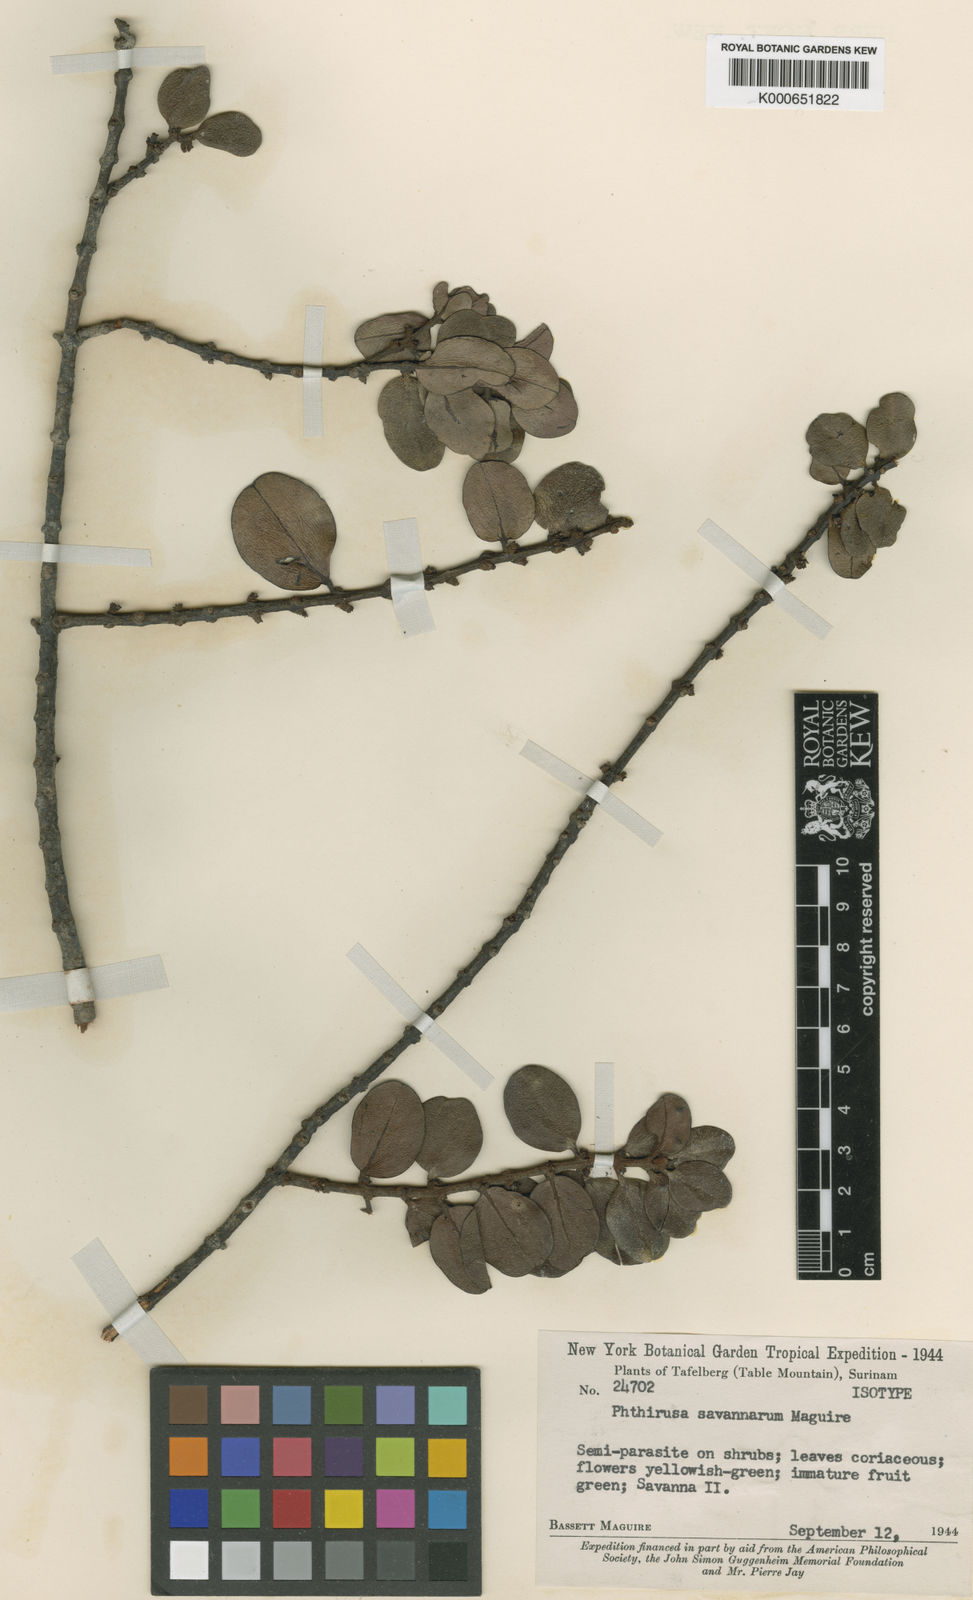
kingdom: Plantae
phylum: Tracheophyta
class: Magnoliopsida
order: Santalales
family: Loranthaceae
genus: Oryctina
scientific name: Oryctina myrsinites
